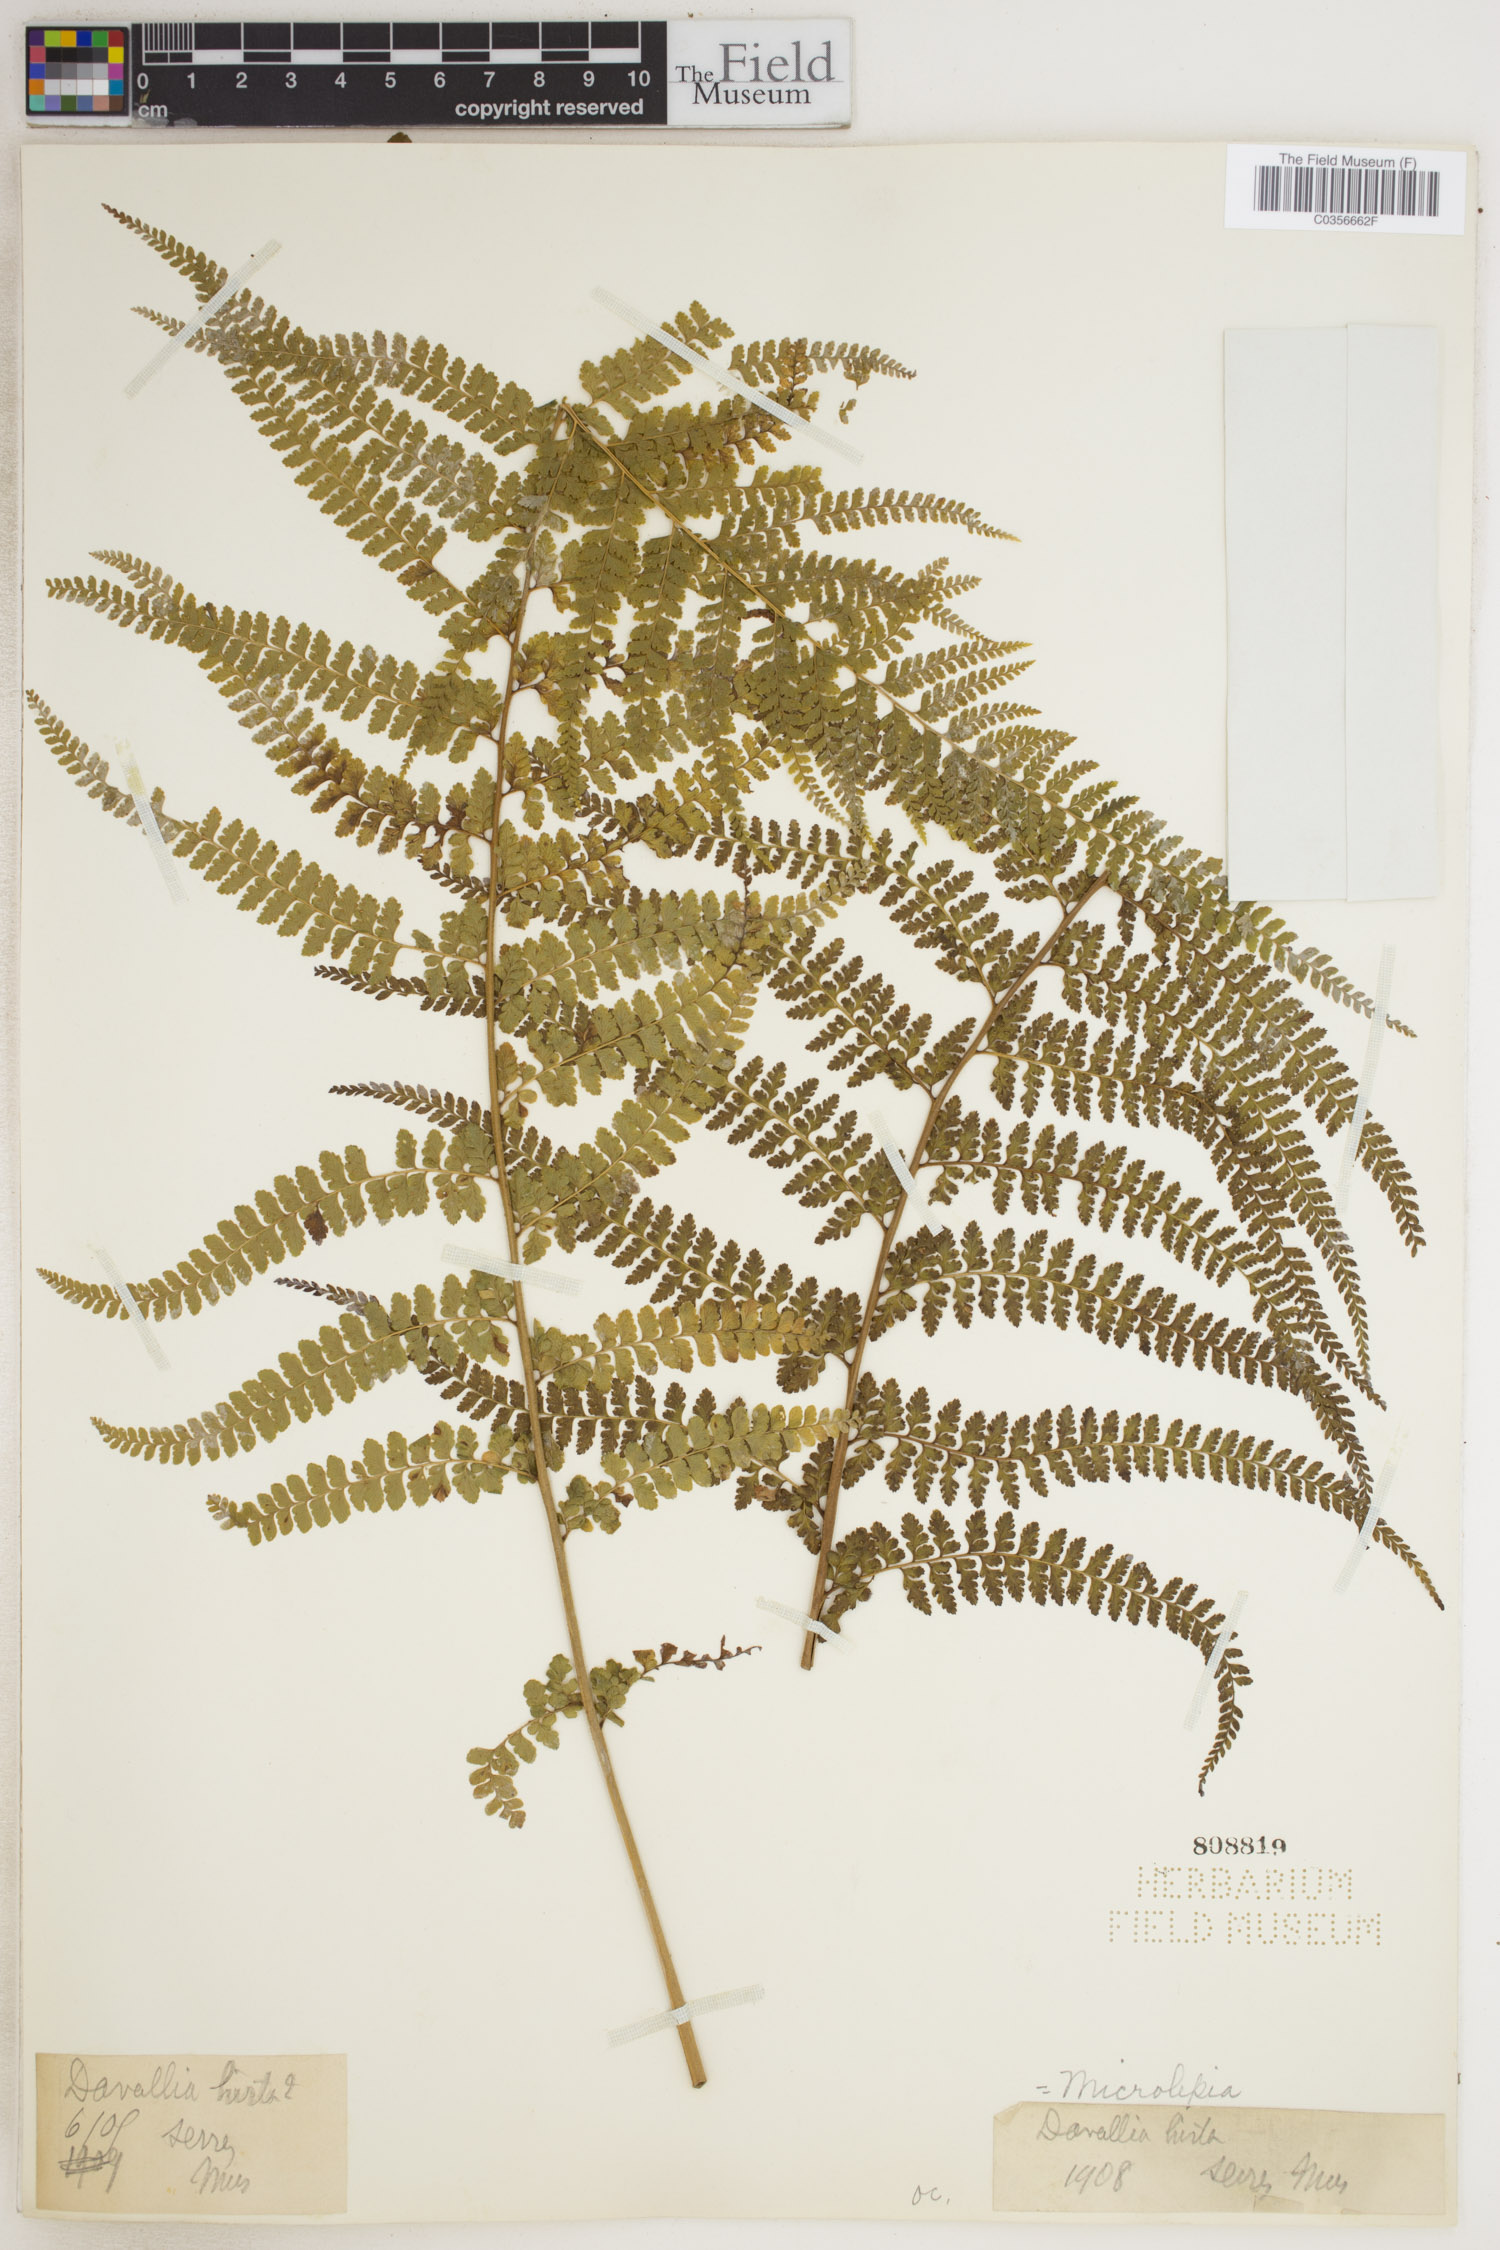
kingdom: Plantae
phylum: Tracheophyta
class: Polypodiopsida
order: Polypodiales
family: Dennstaedtiaceae
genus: Microlepia
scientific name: Microlepia
